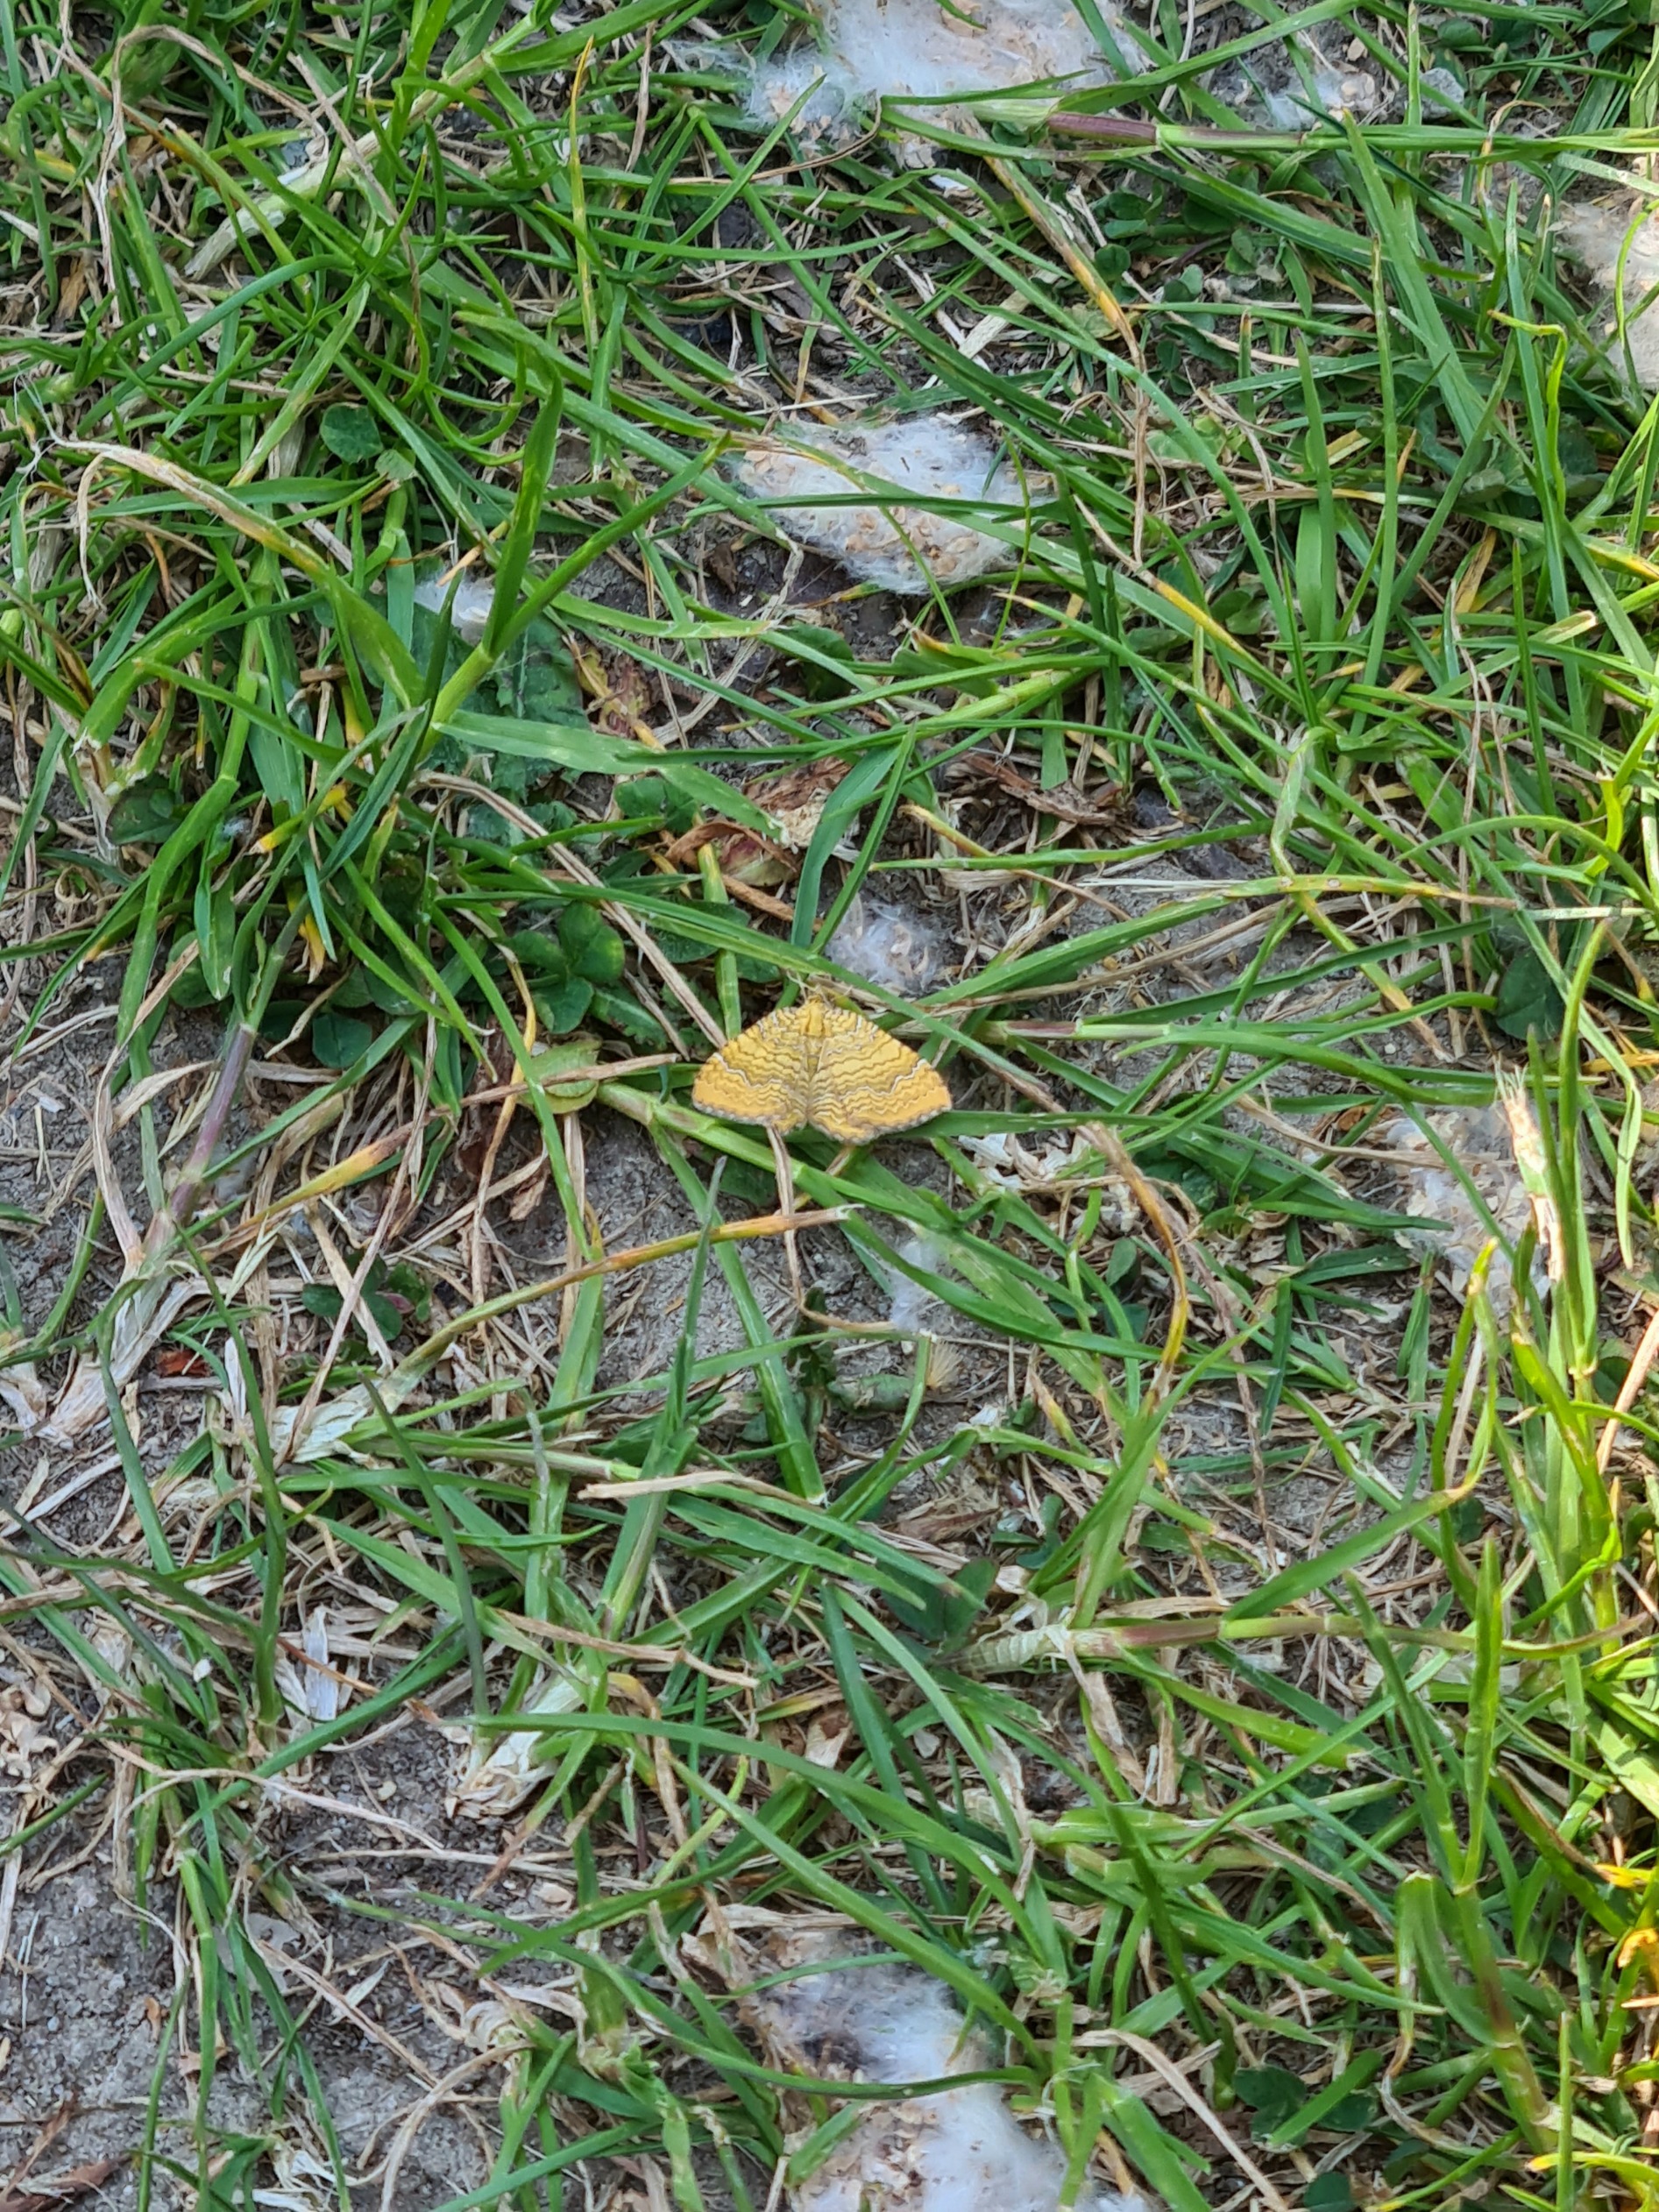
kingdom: Animalia
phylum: Arthropoda
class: Insecta
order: Lepidoptera
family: Geometridae
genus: Camptogramma
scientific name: Camptogramma bilineata
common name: Okkergul bladmåler
